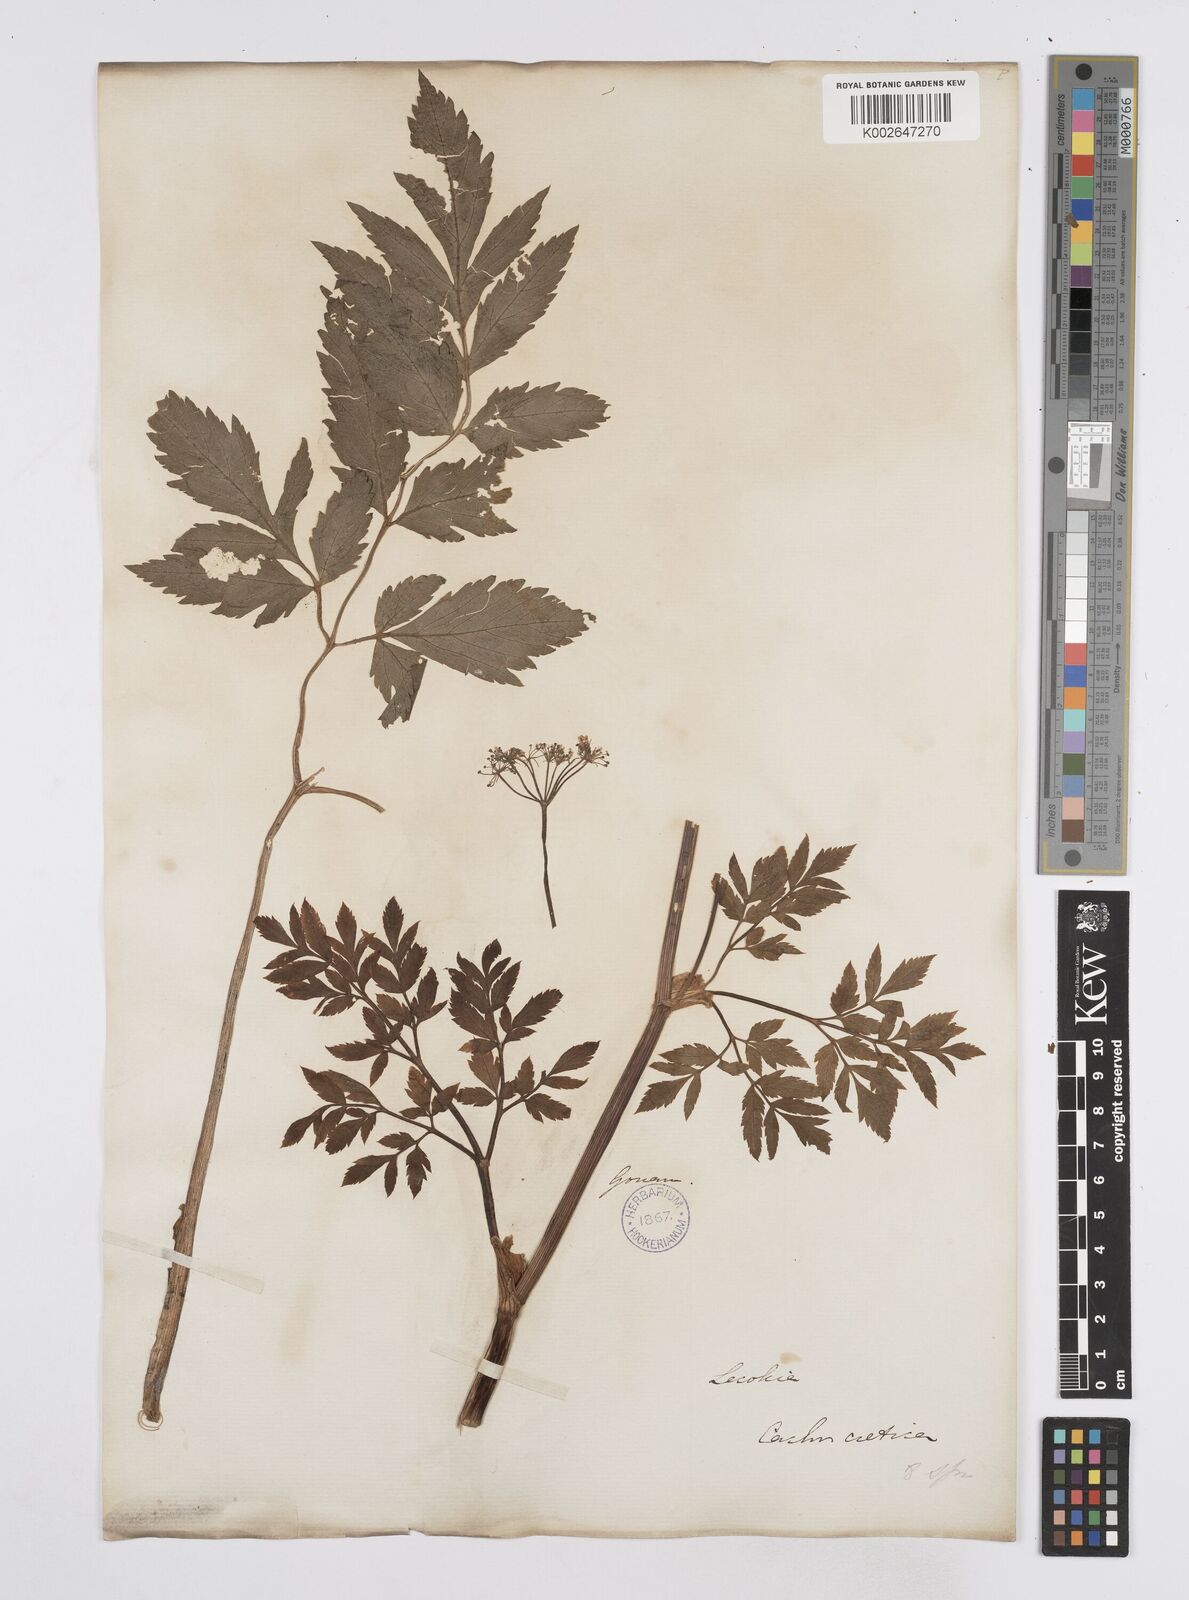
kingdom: Plantae
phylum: Tracheophyta
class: Magnoliopsida
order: Apiales
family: Apiaceae
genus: Lecokia
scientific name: Lecokia
